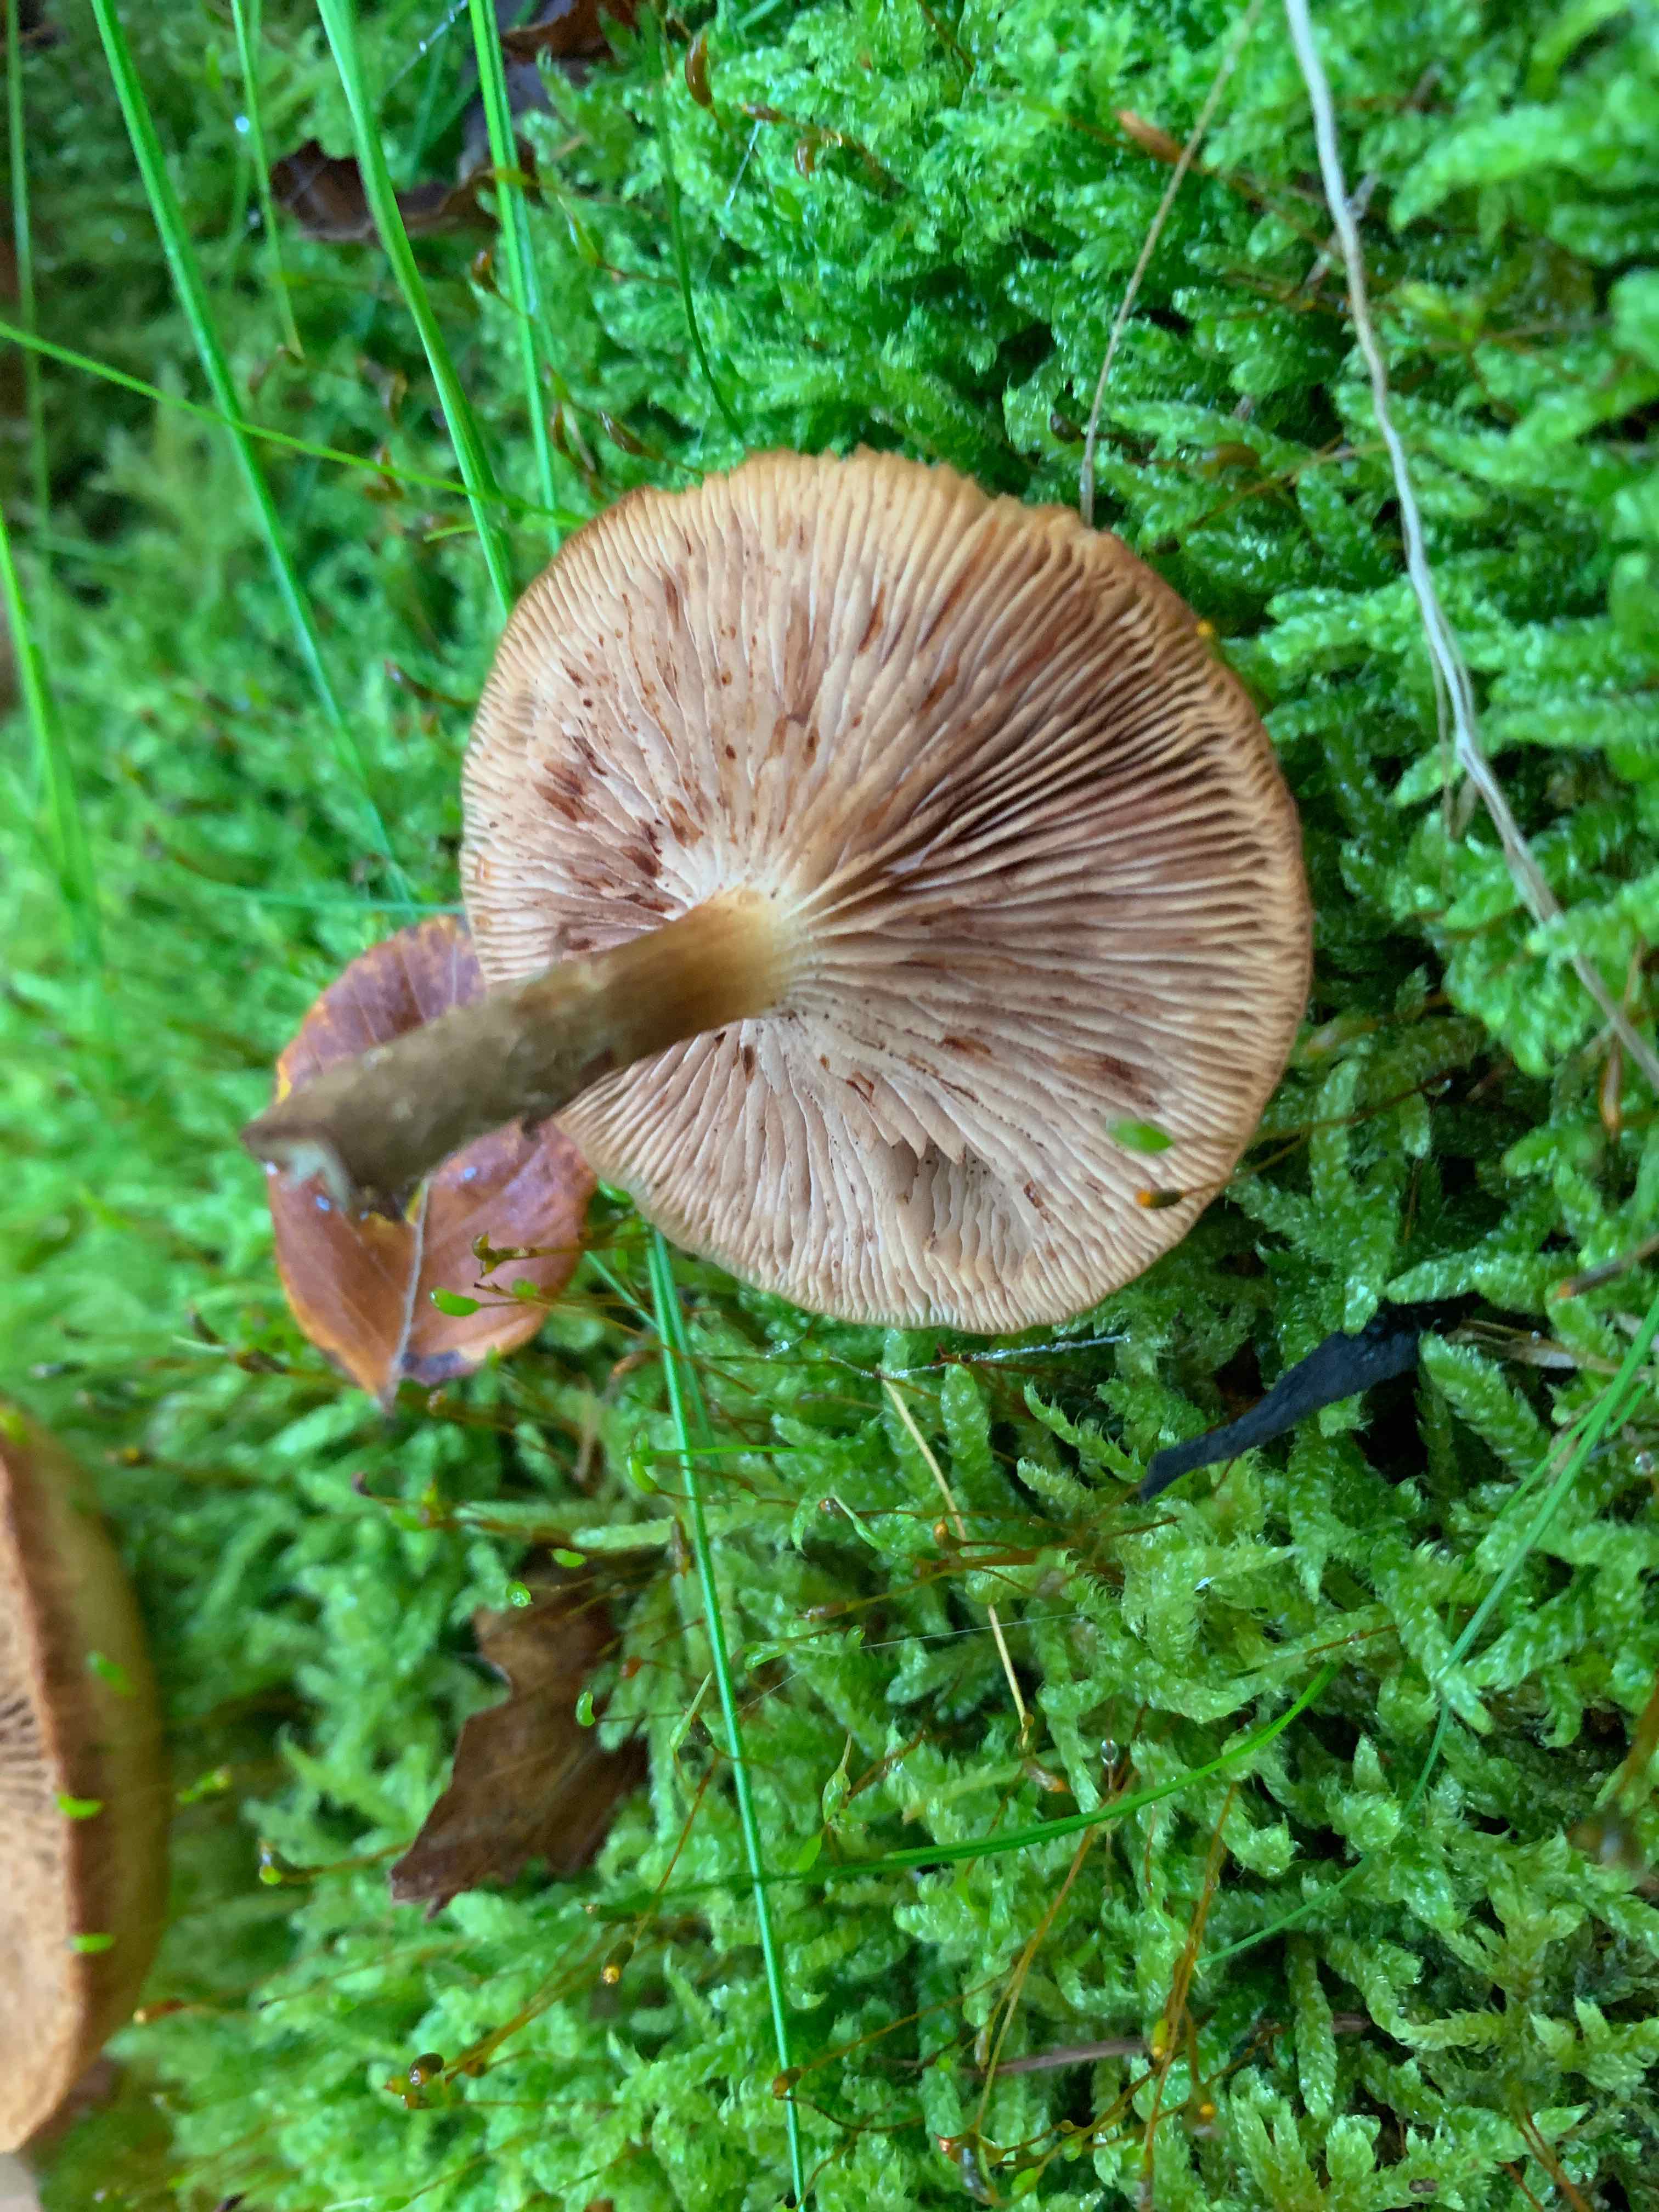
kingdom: Fungi
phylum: Basidiomycota
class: Agaricomycetes
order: Agaricales
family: Strophariaceae
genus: Kuehneromyces
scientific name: Kuehneromyces mutabilis
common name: foranderlig skælhat
